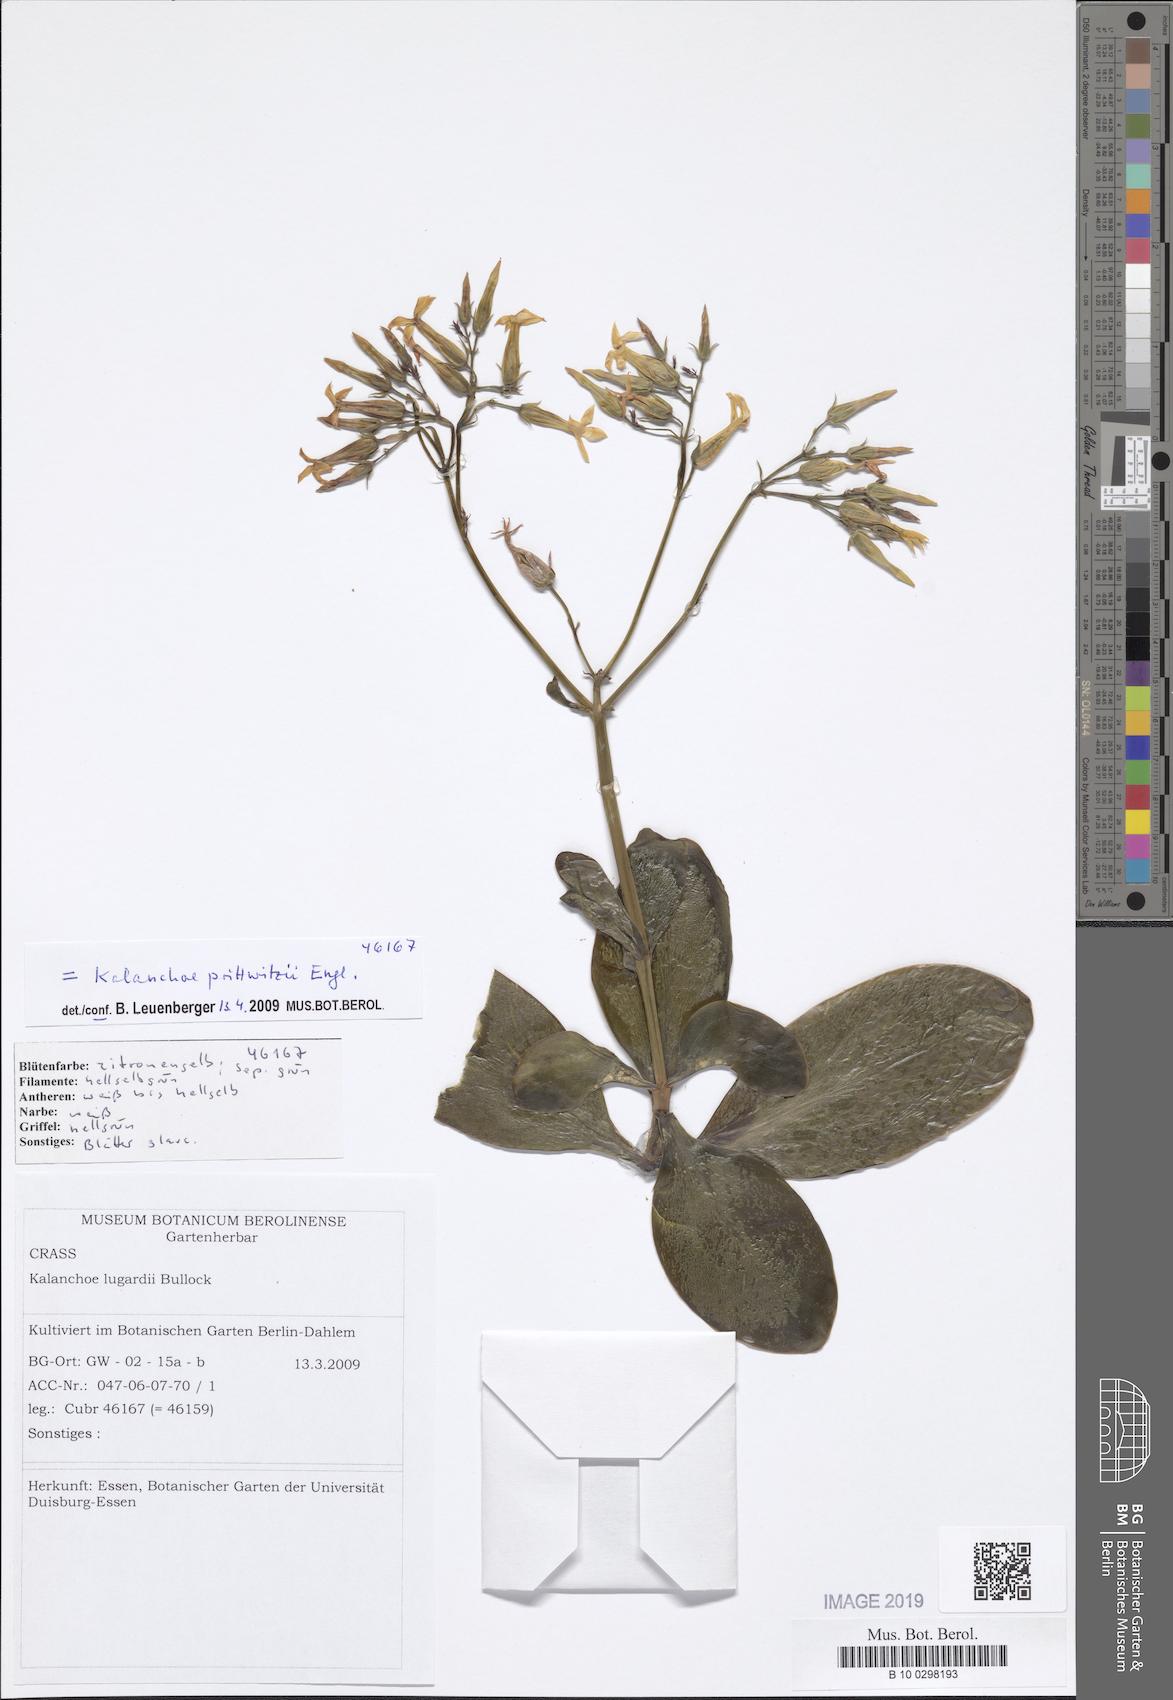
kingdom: Plantae
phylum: Tracheophyta
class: Magnoliopsida
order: Saxifragales
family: Crassulaceae
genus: Kalanchoe
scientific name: Kalanchoe prittwitzii
